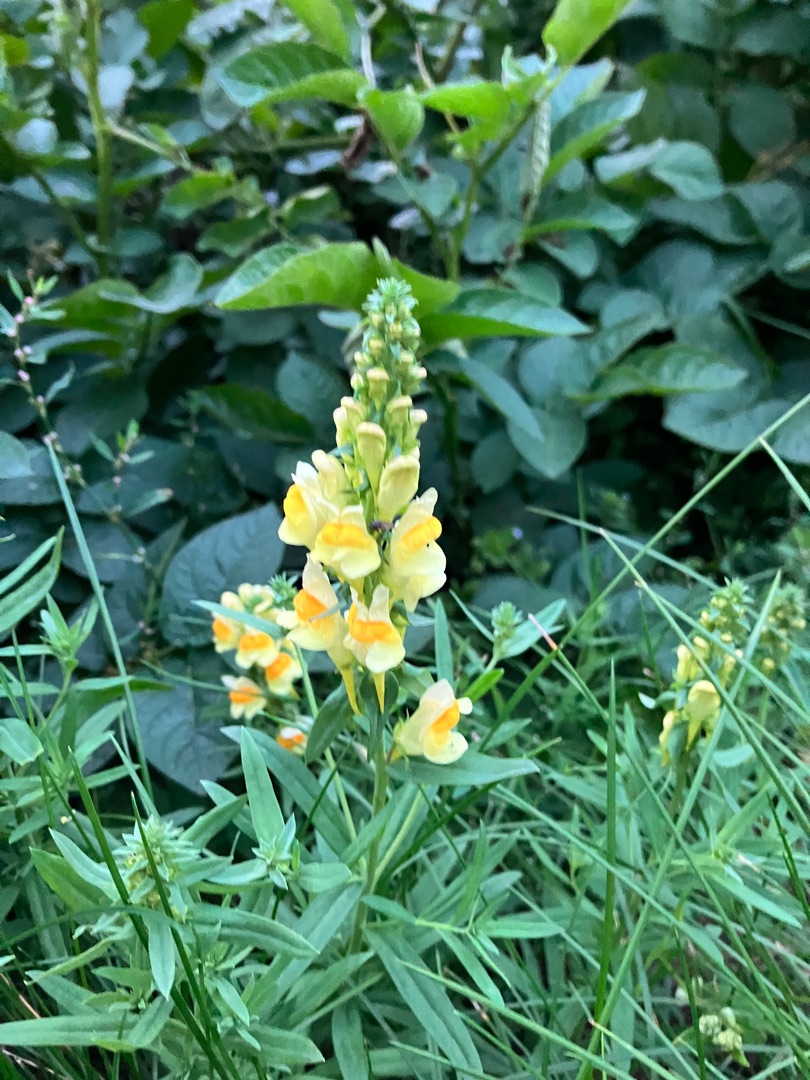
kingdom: Plantae
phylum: Tracheophyta
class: Magnoliopsida
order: Lamiales
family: Plantaginaceae
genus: Linaria
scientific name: Linaria vulgaris
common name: Almindelig torskemund
